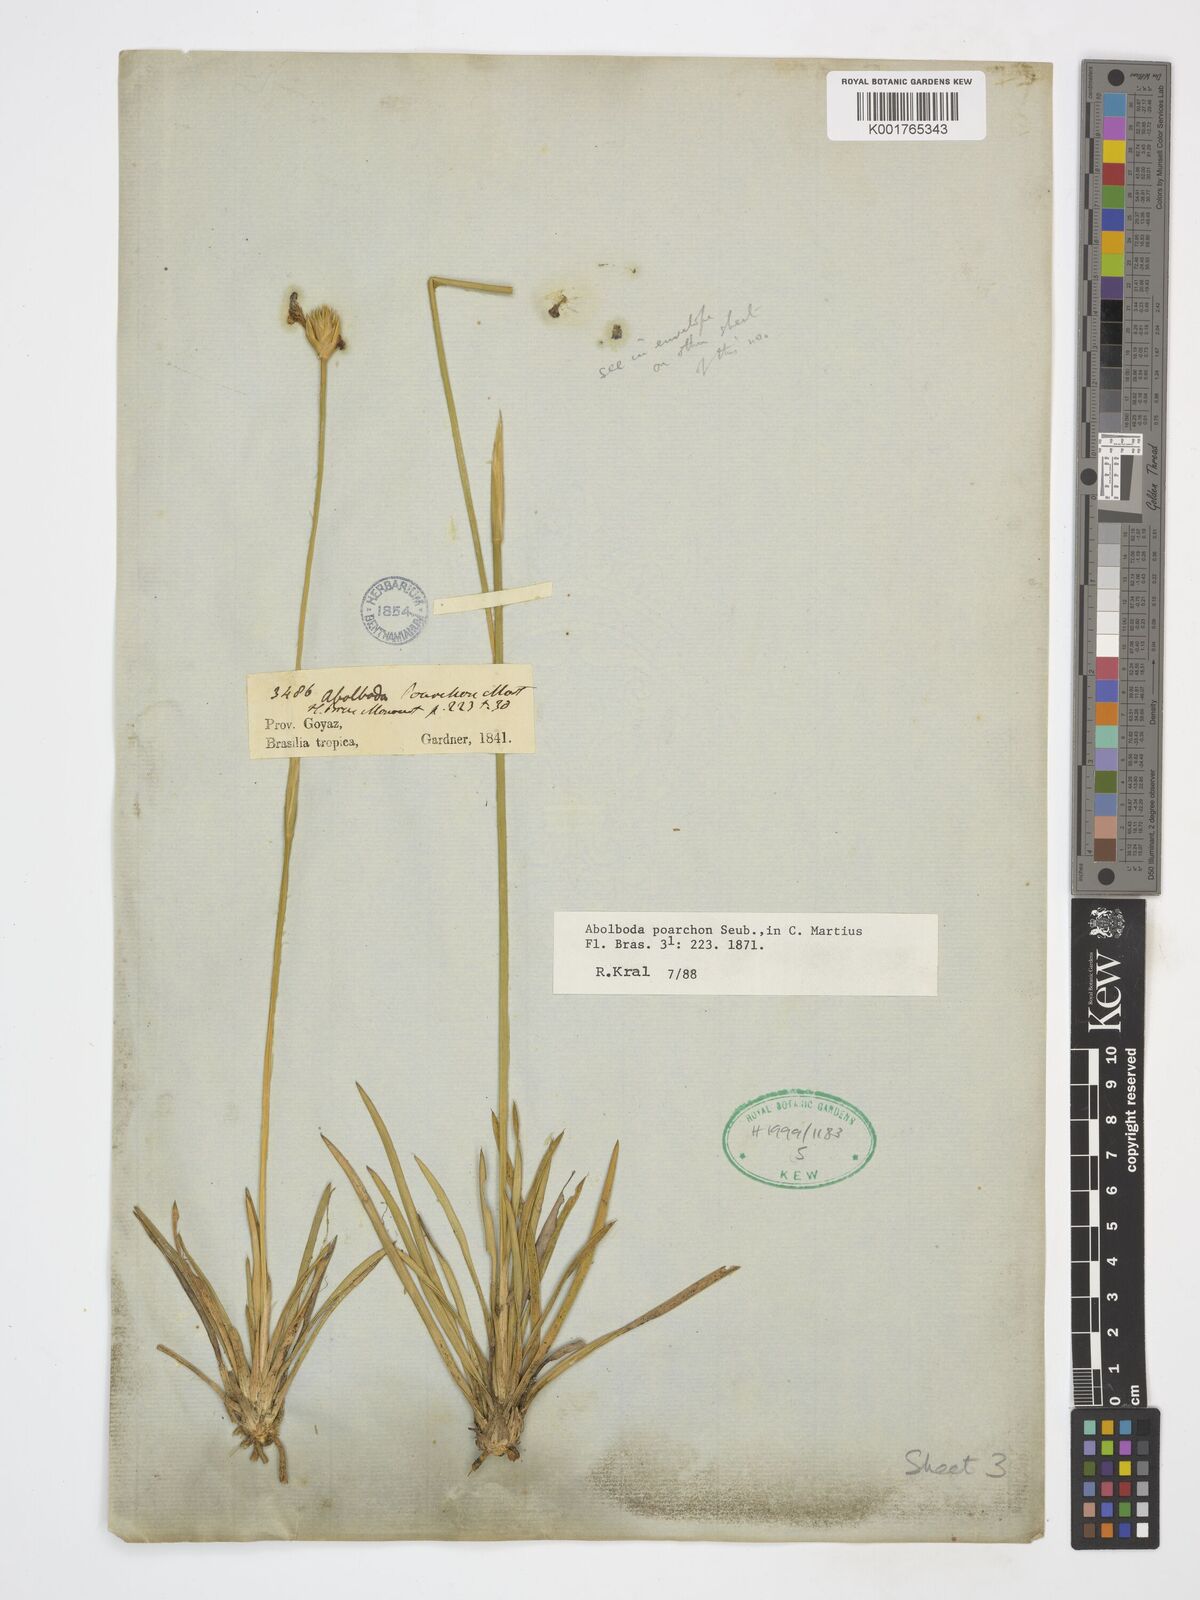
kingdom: Plantae
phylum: Tracheophyta
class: Liliopsida
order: Poales
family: Xyridaceae
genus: Abolboda
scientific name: Abolboda poarchon
